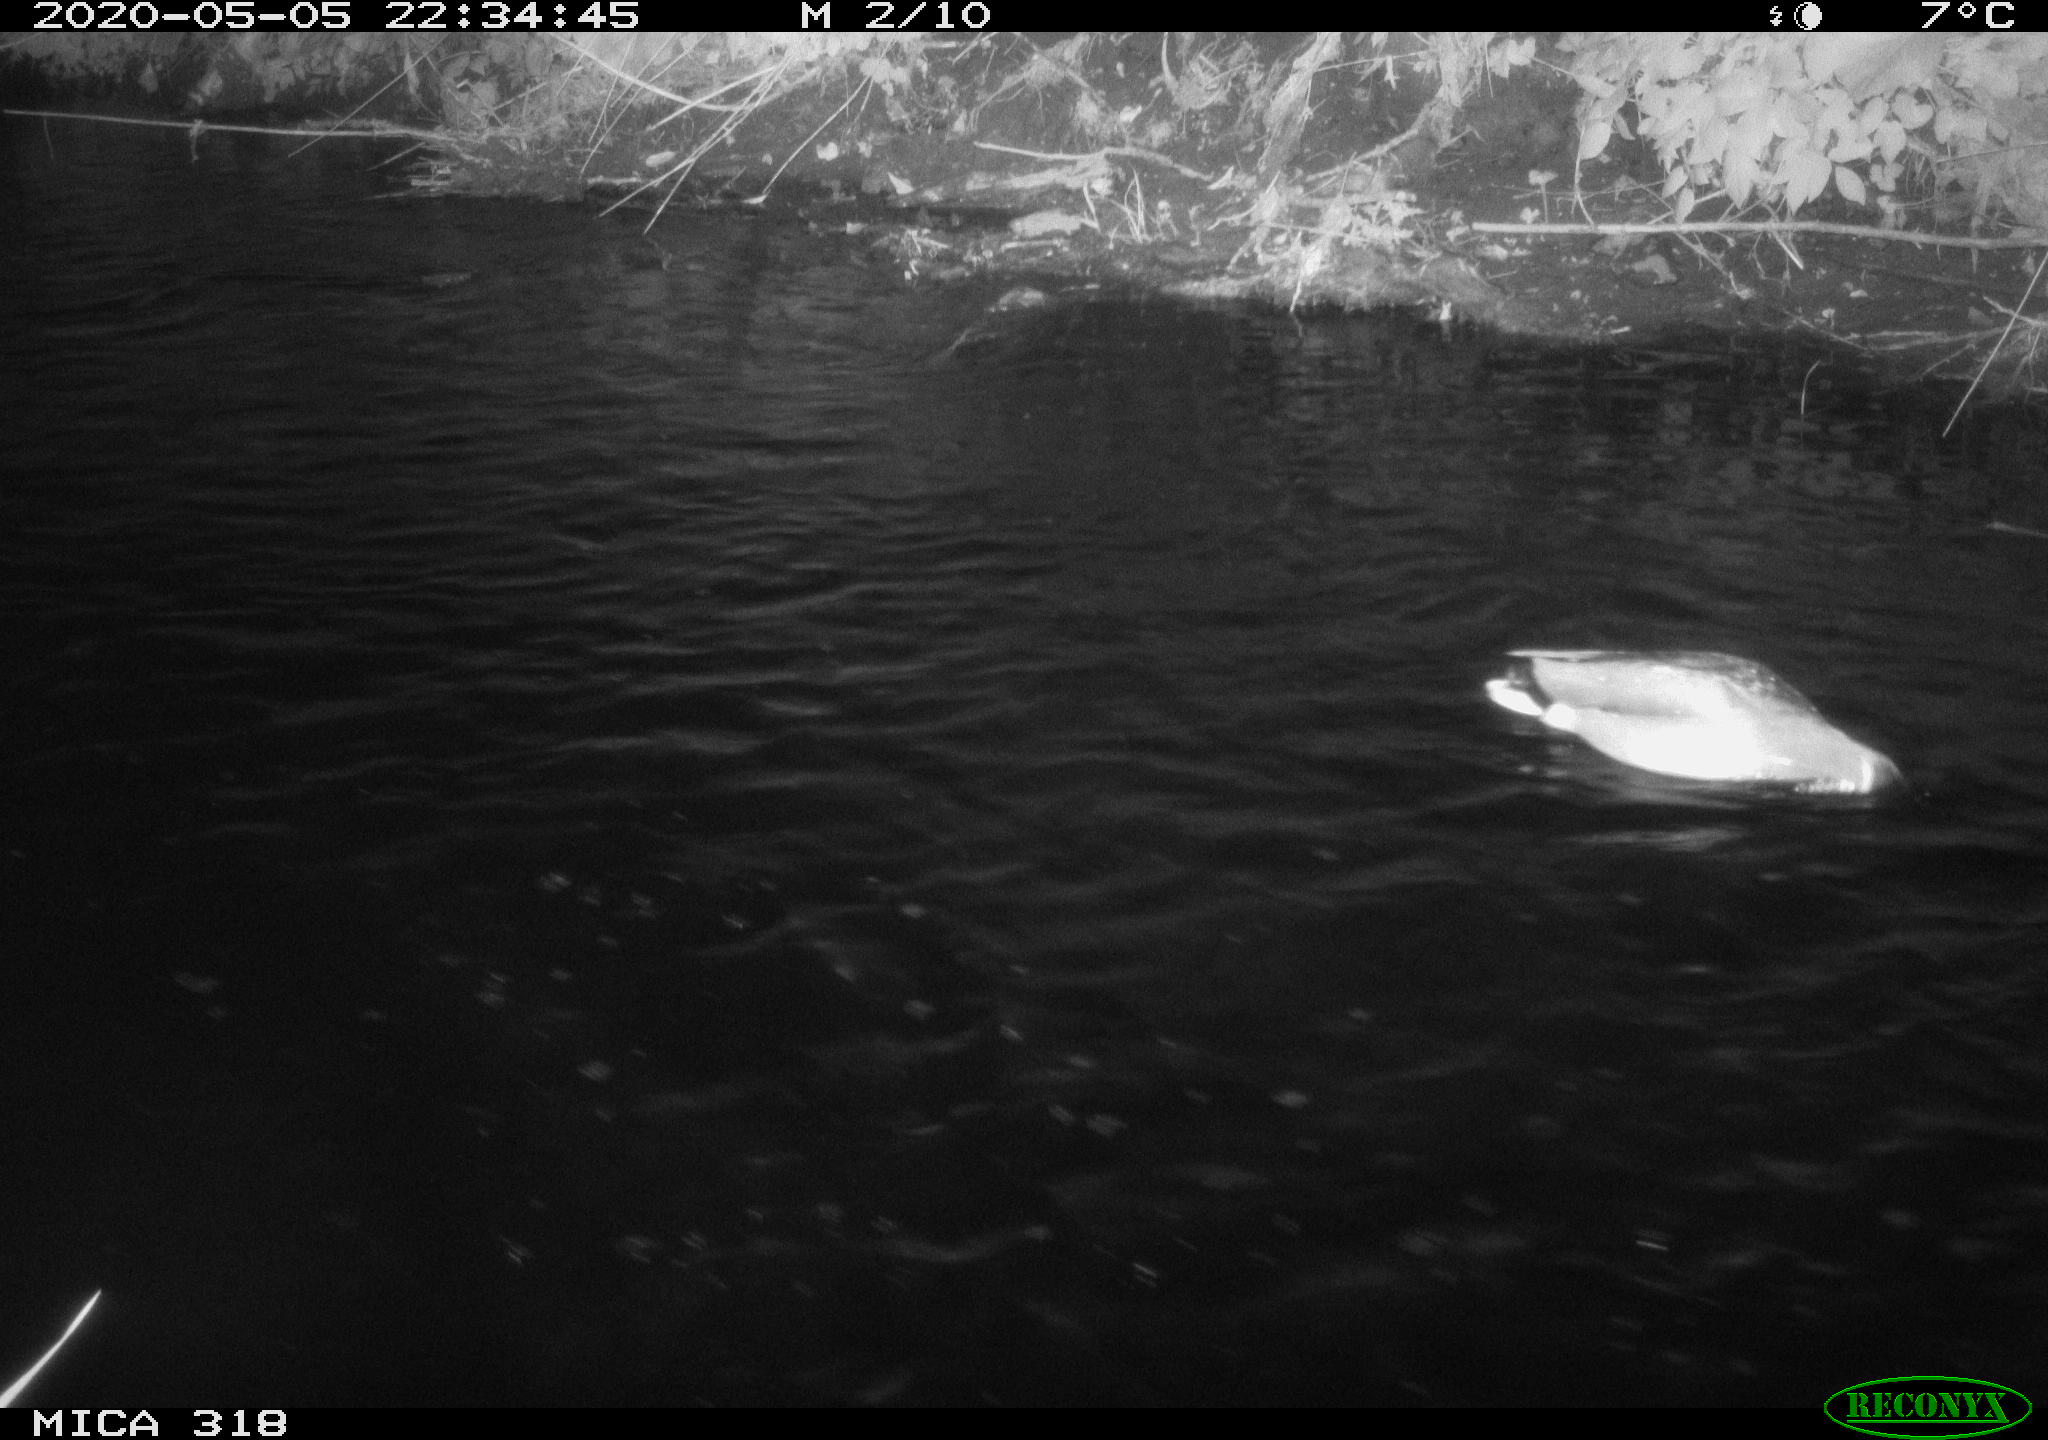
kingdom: Animalia
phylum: Chordata
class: Aves
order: Anseriformes
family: Anatidae
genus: Anas
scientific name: Anas platyrhynchos
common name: Mallard
